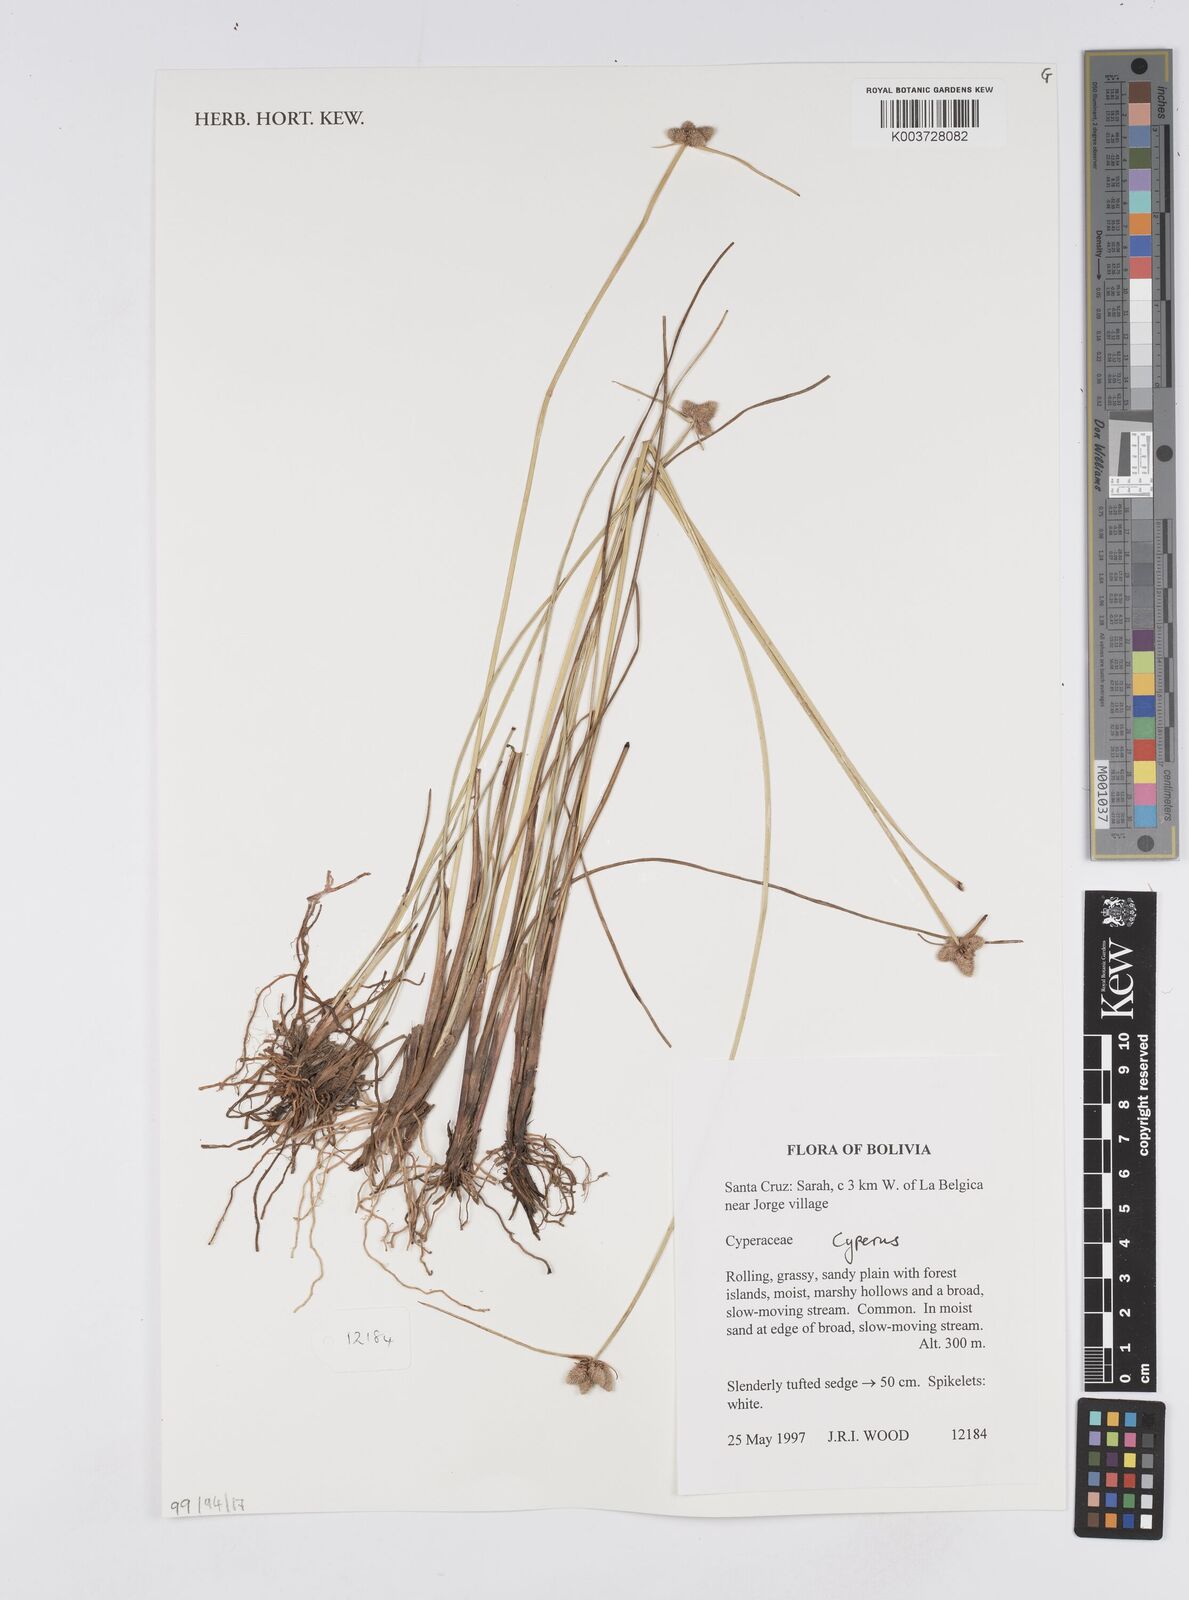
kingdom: Plantae
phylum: Tracheophyta
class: Liliopsida
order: Poales
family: Cyperaceae
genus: Cyperus
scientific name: Cyperus
